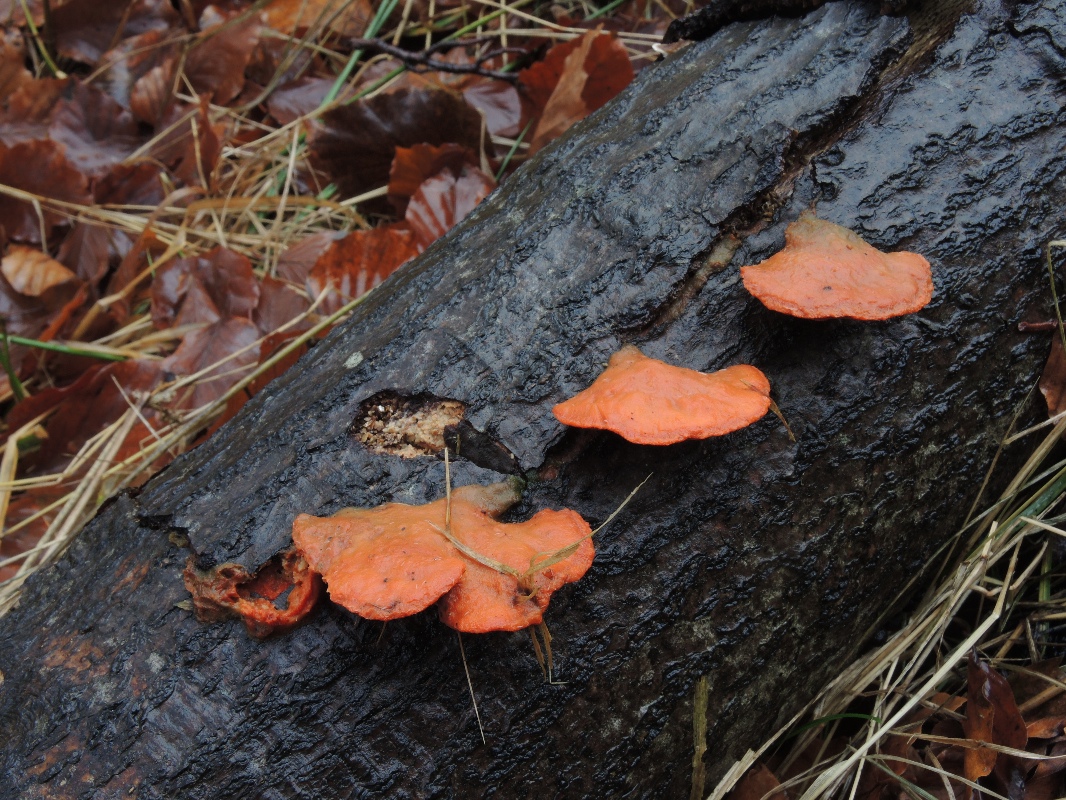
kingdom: Fungi
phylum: Basidiomycota
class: Agaricomycetes
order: Polyporales
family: Polyporaceae
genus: Trametes
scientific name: Trametes cinnabarina
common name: cinnoberporesvamp
